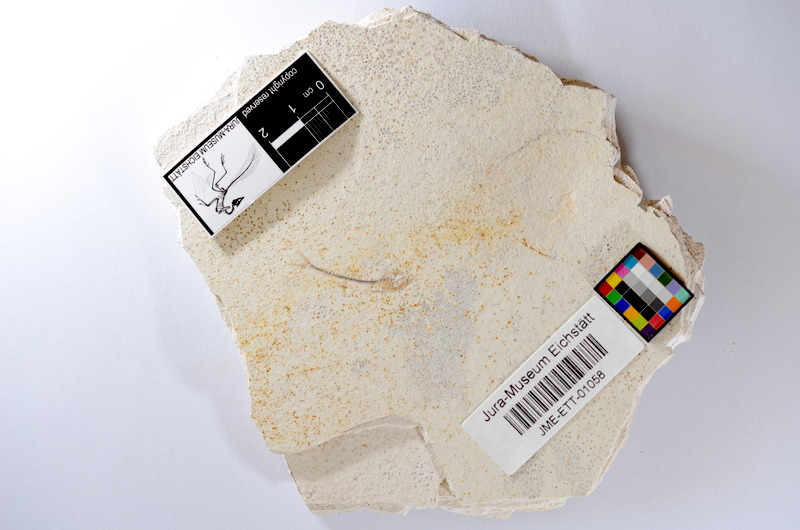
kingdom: Animalia
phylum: Chordata
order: Salmoniformes
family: Orthogonikleithridae
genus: Orthogonikleithrus
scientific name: Orthogonikleithrus hoelli
